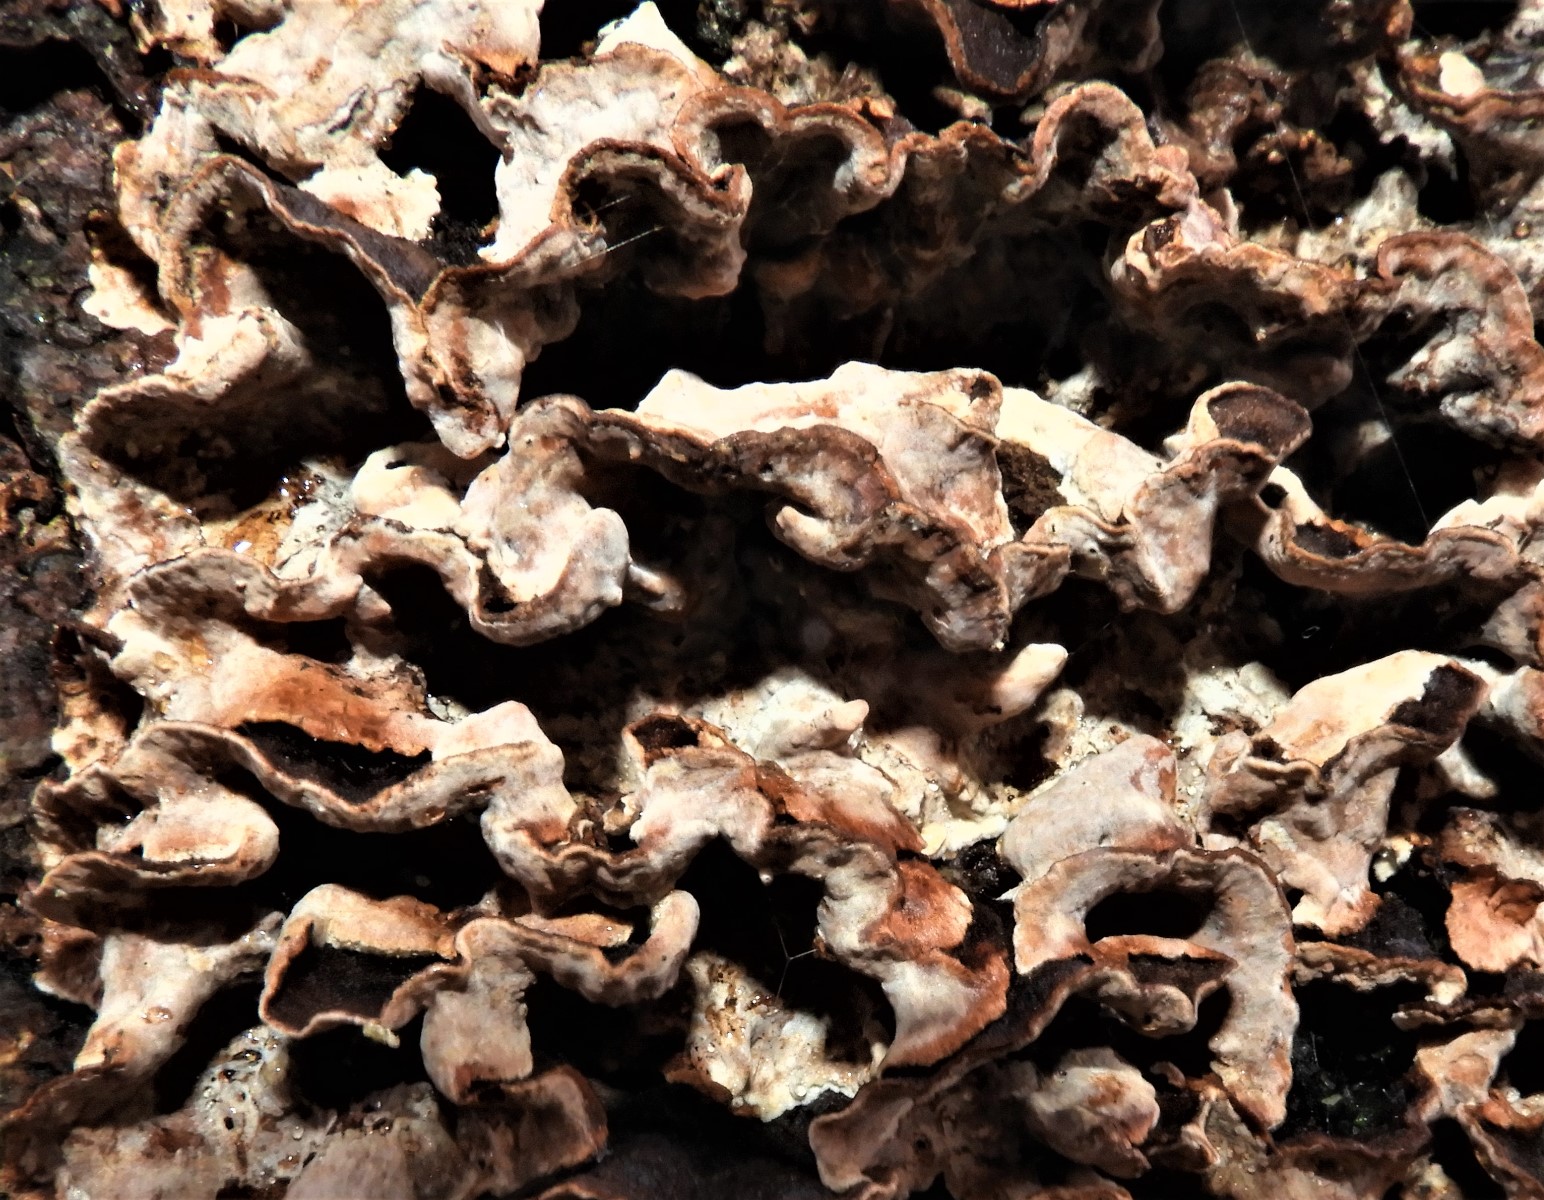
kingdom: Fungi
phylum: Basidiomycota
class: Agaricomycetes
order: Russulales
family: Hericiaceae
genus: Laxitextum
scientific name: Laxitextum bicolor
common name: tvefarvet filtskind
